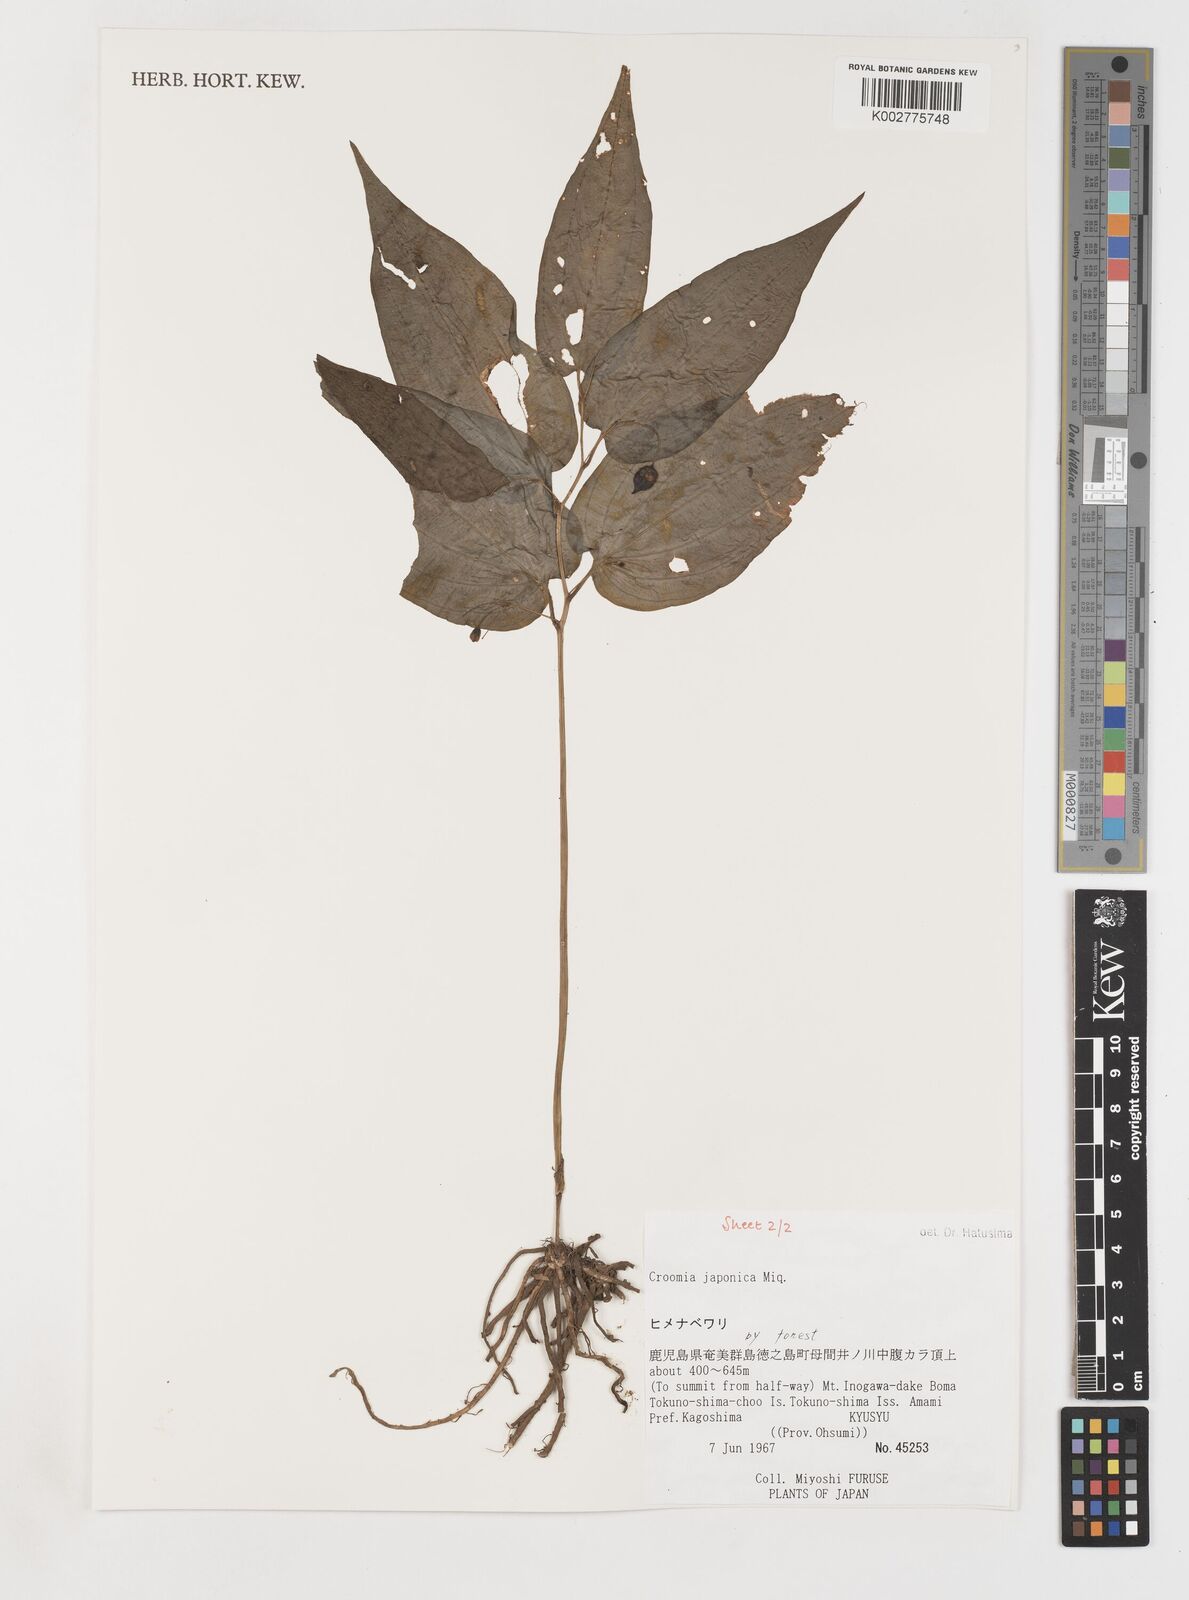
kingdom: Plantae
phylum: Tracheophyta
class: Liliopsida
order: Pandanales
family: Stemonaceae
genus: Croomia
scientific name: Croomia japonica
